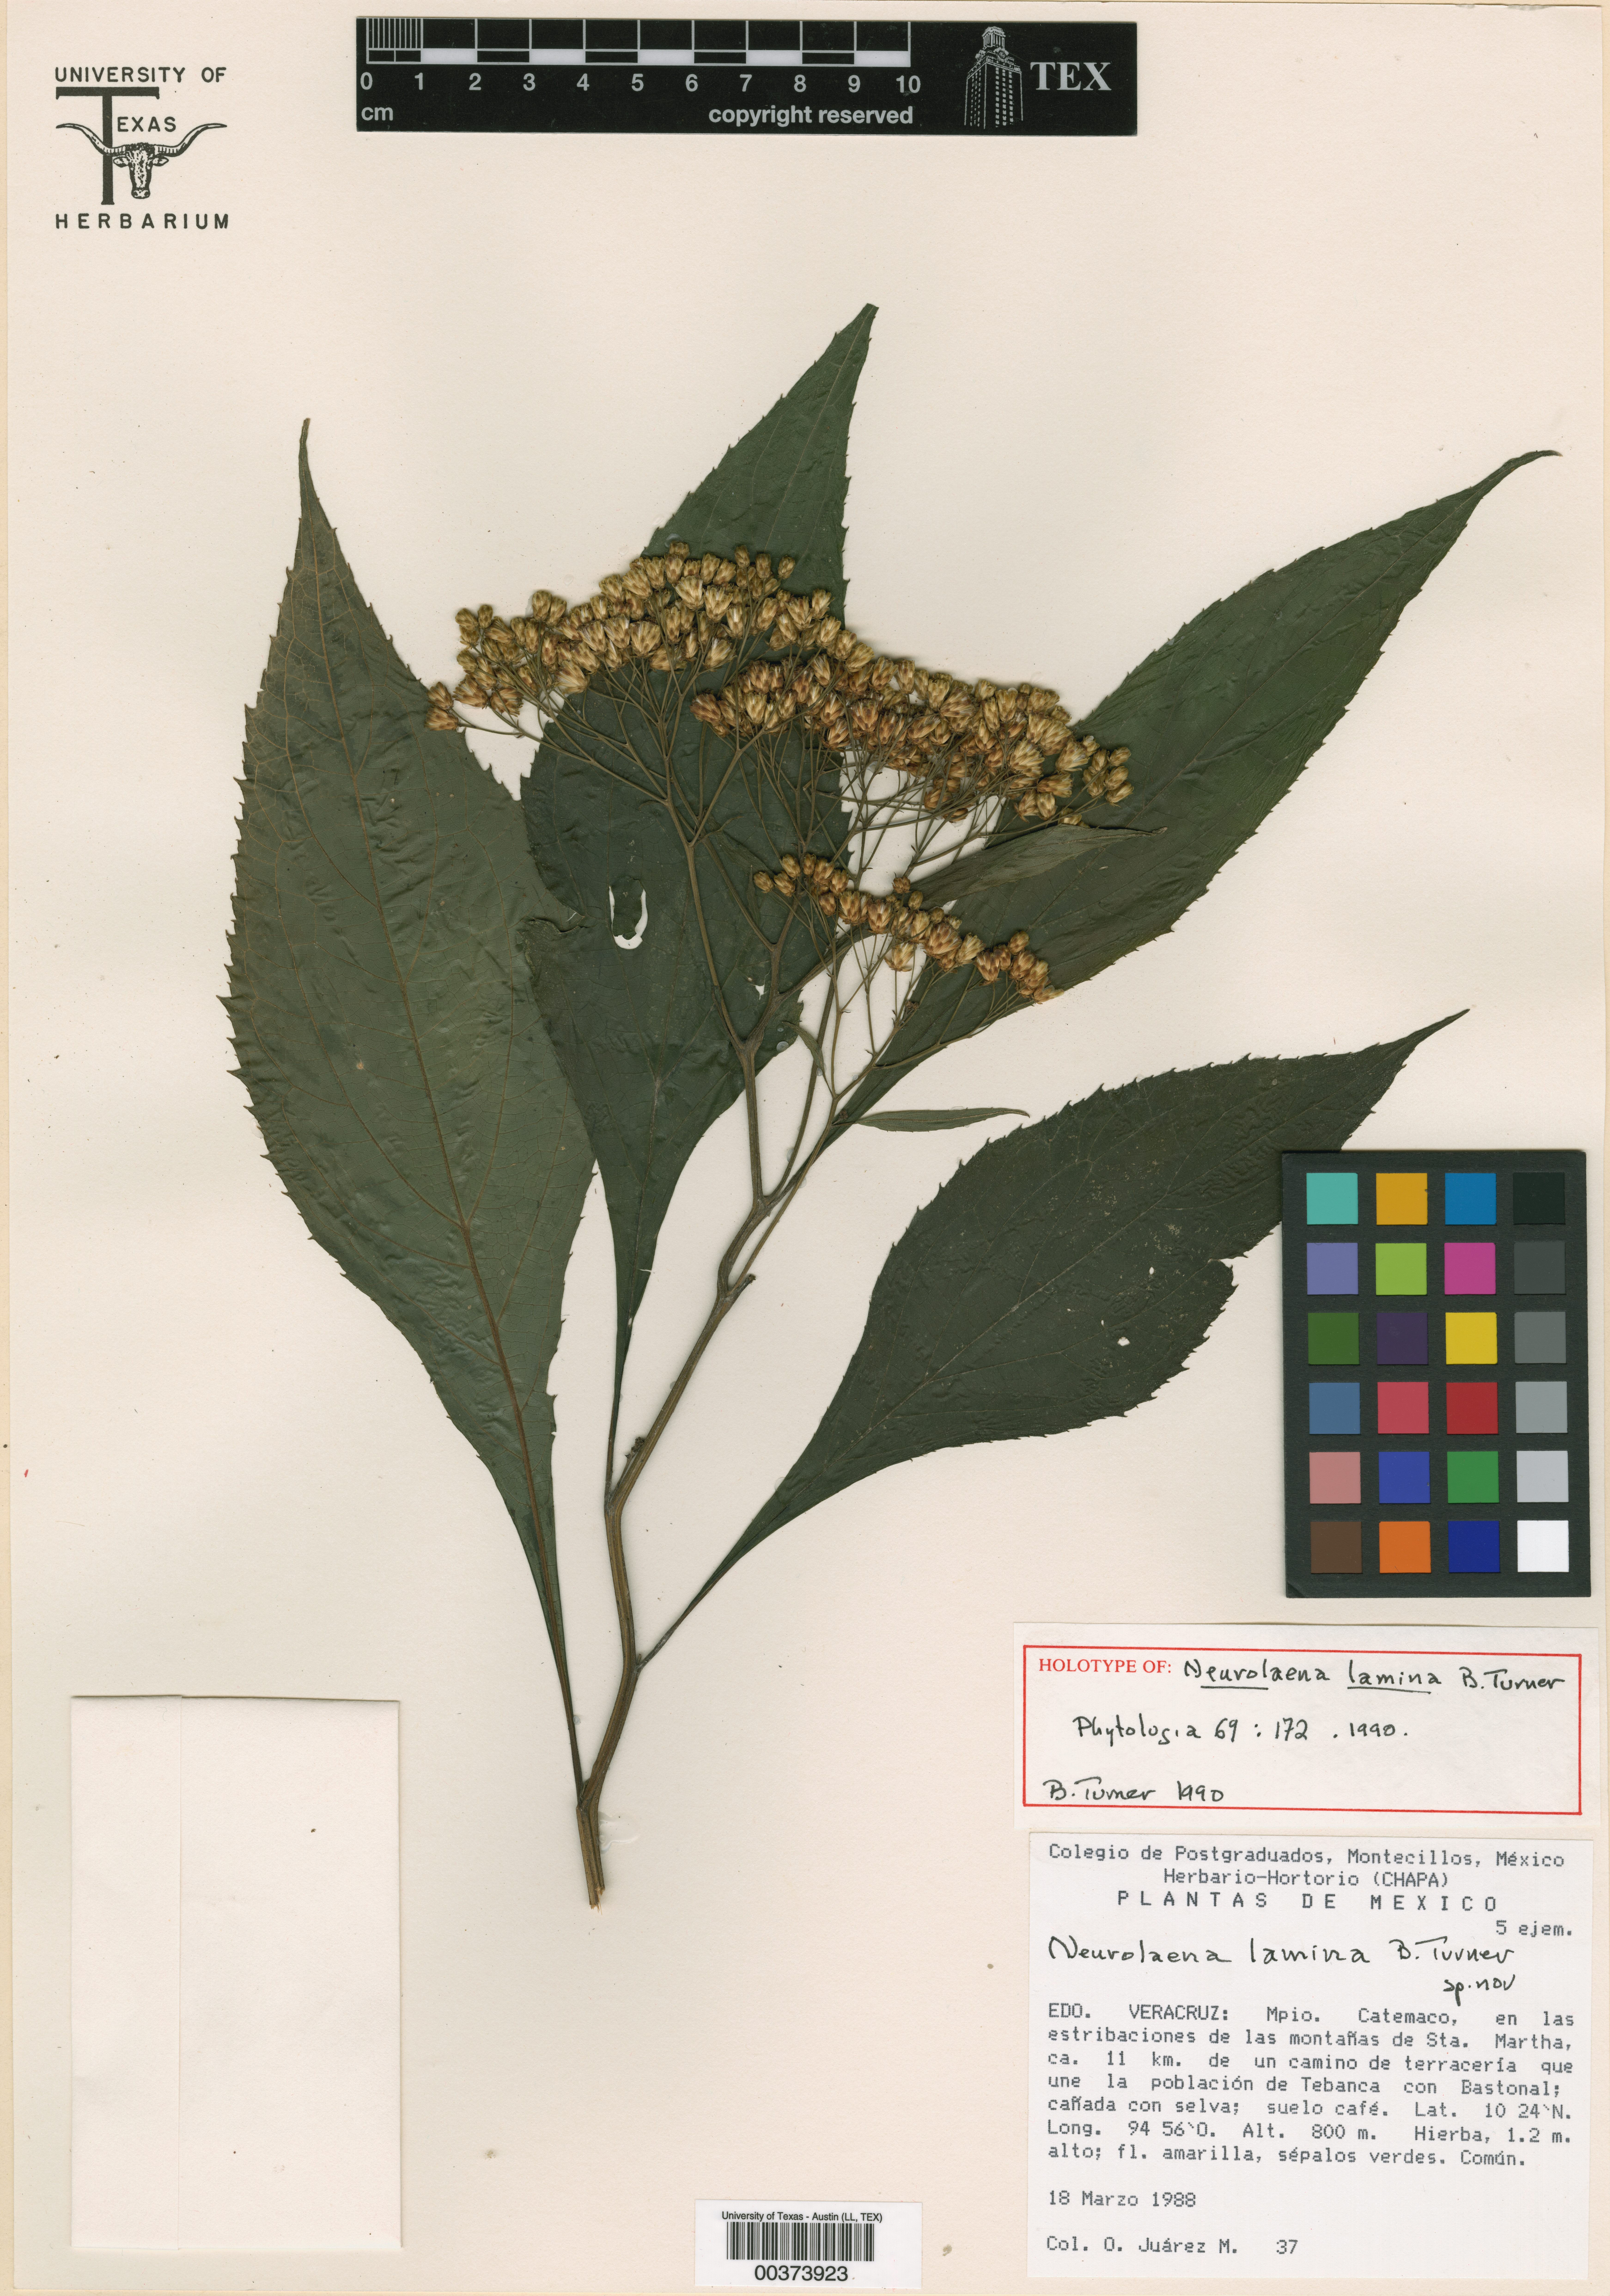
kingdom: Plantae
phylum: Tracheophyta
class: Magnoliopsida
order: Asterales
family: Asteraceae
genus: Neurolaena
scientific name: Neurolaena lamina
